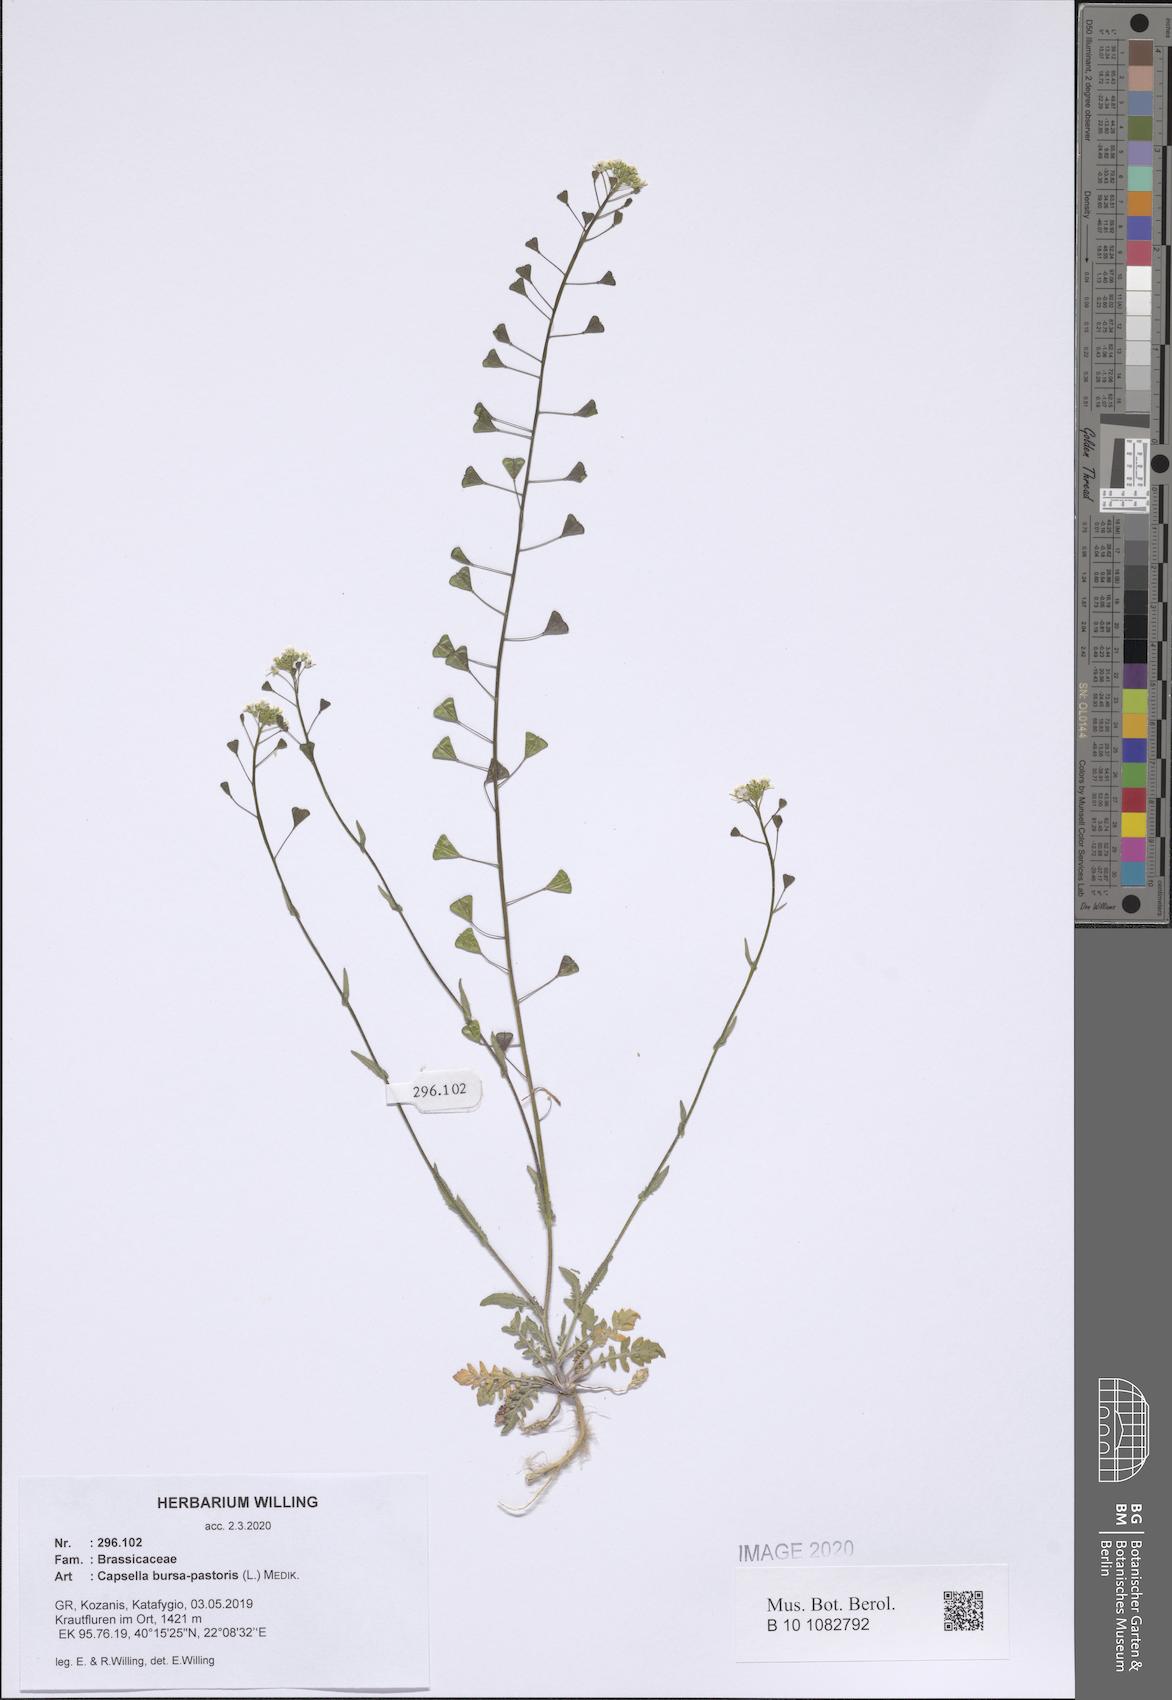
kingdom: Plantae
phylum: Tracheophyta
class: Magnoliopsida
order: Brassicales
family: Brassicaceae
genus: Capsella
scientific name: Capsella bursa-pastoris
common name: Shepherd's purse
